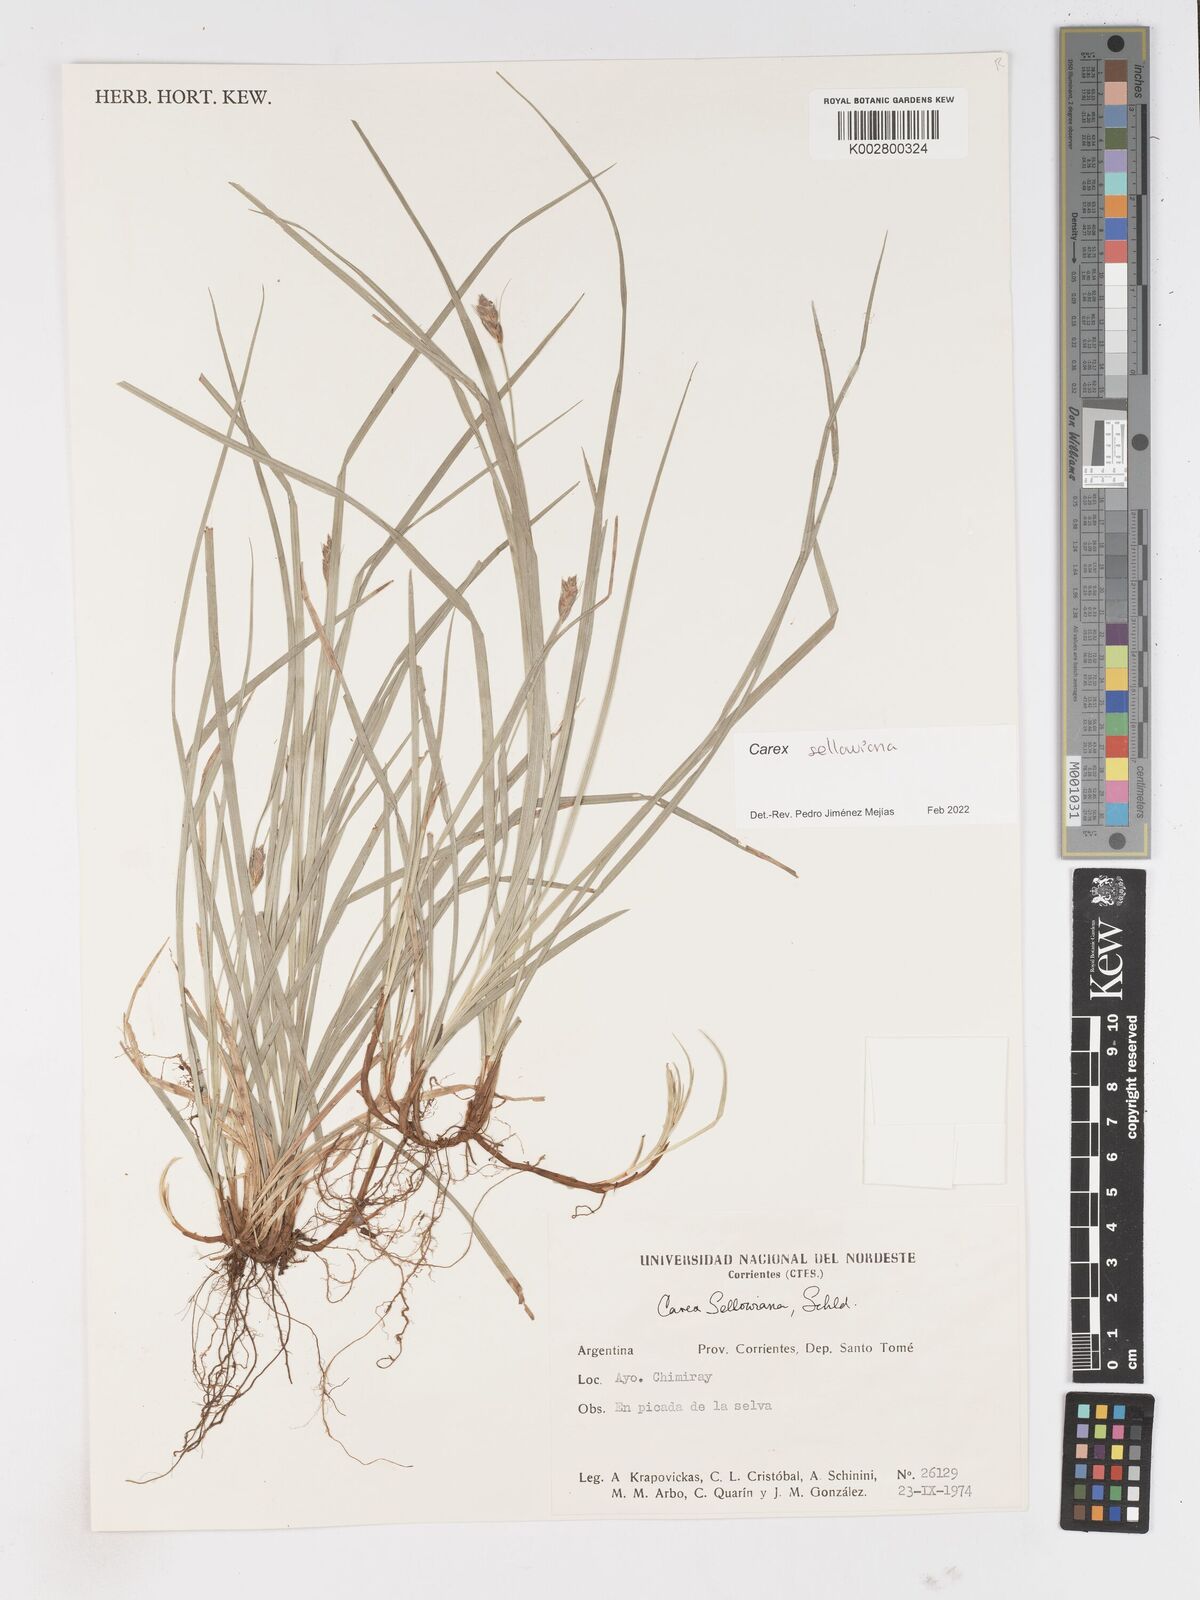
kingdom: Plantae
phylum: Tracheophyta
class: Liliopsida
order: Poales
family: Cyperaceae
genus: Carex
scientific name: Carex sellowiana
